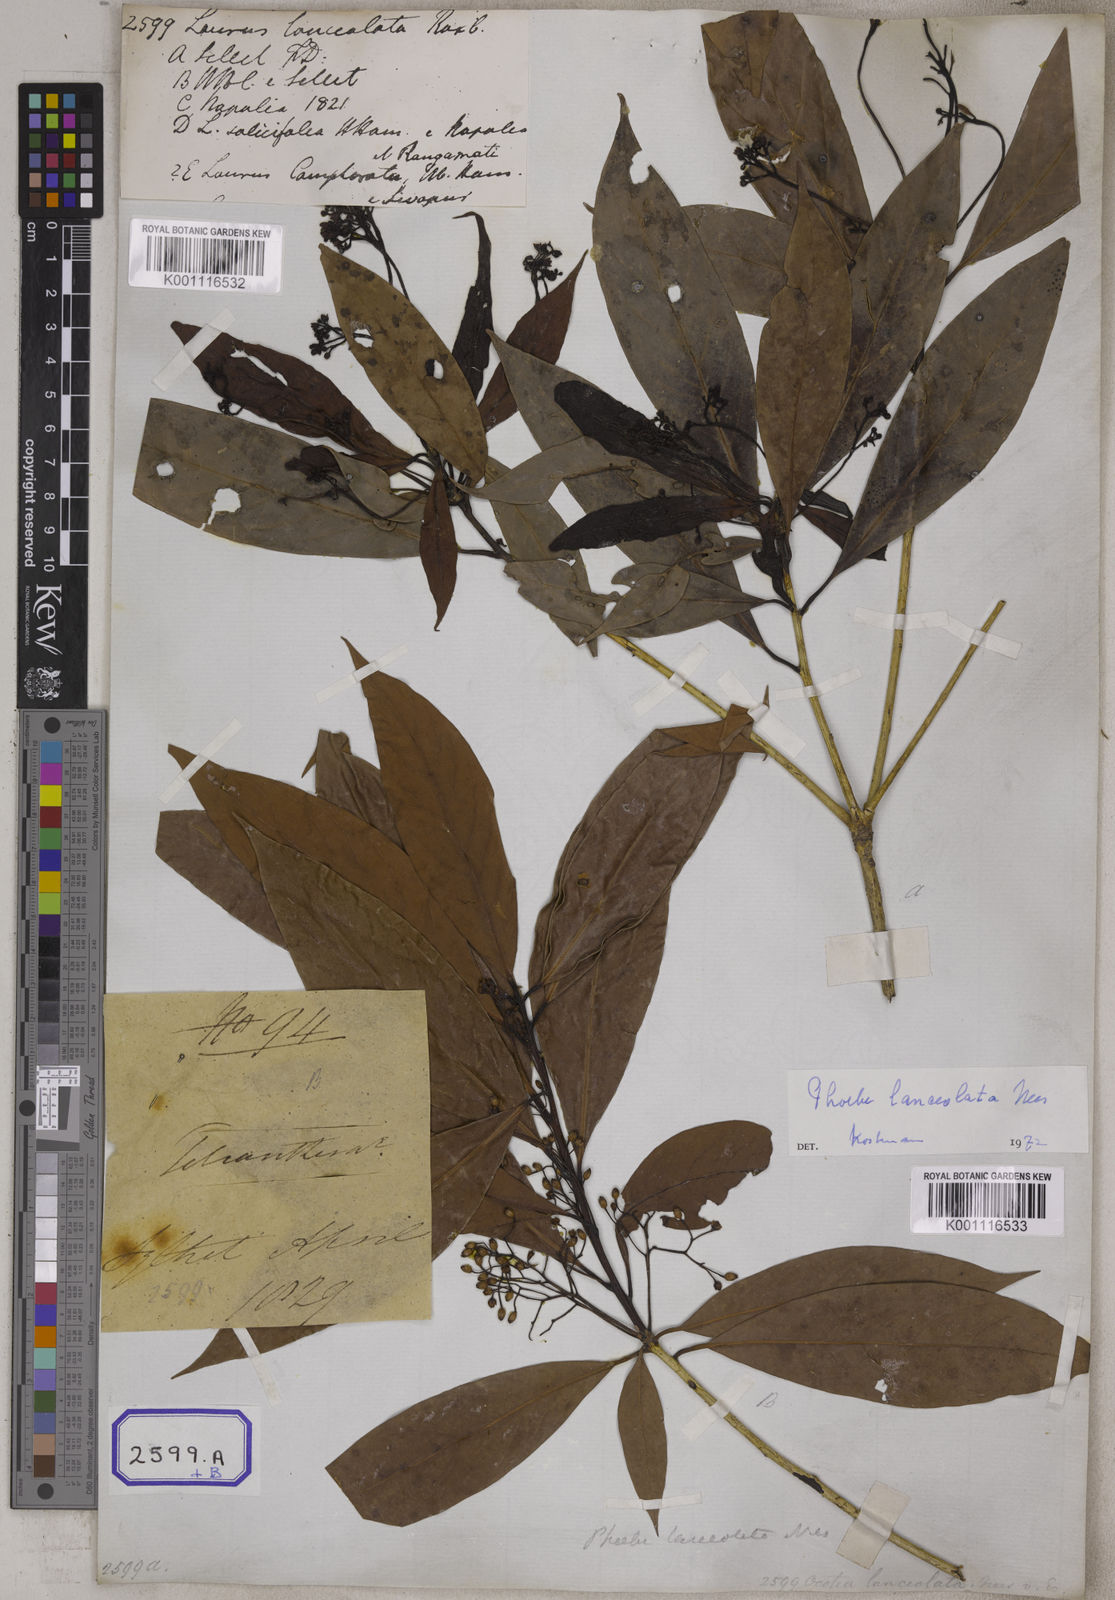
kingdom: Plantae
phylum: Tracheophyta
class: Magnoliopsida
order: Laurales
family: Lauraceae
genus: Laurus
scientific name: Laurus
